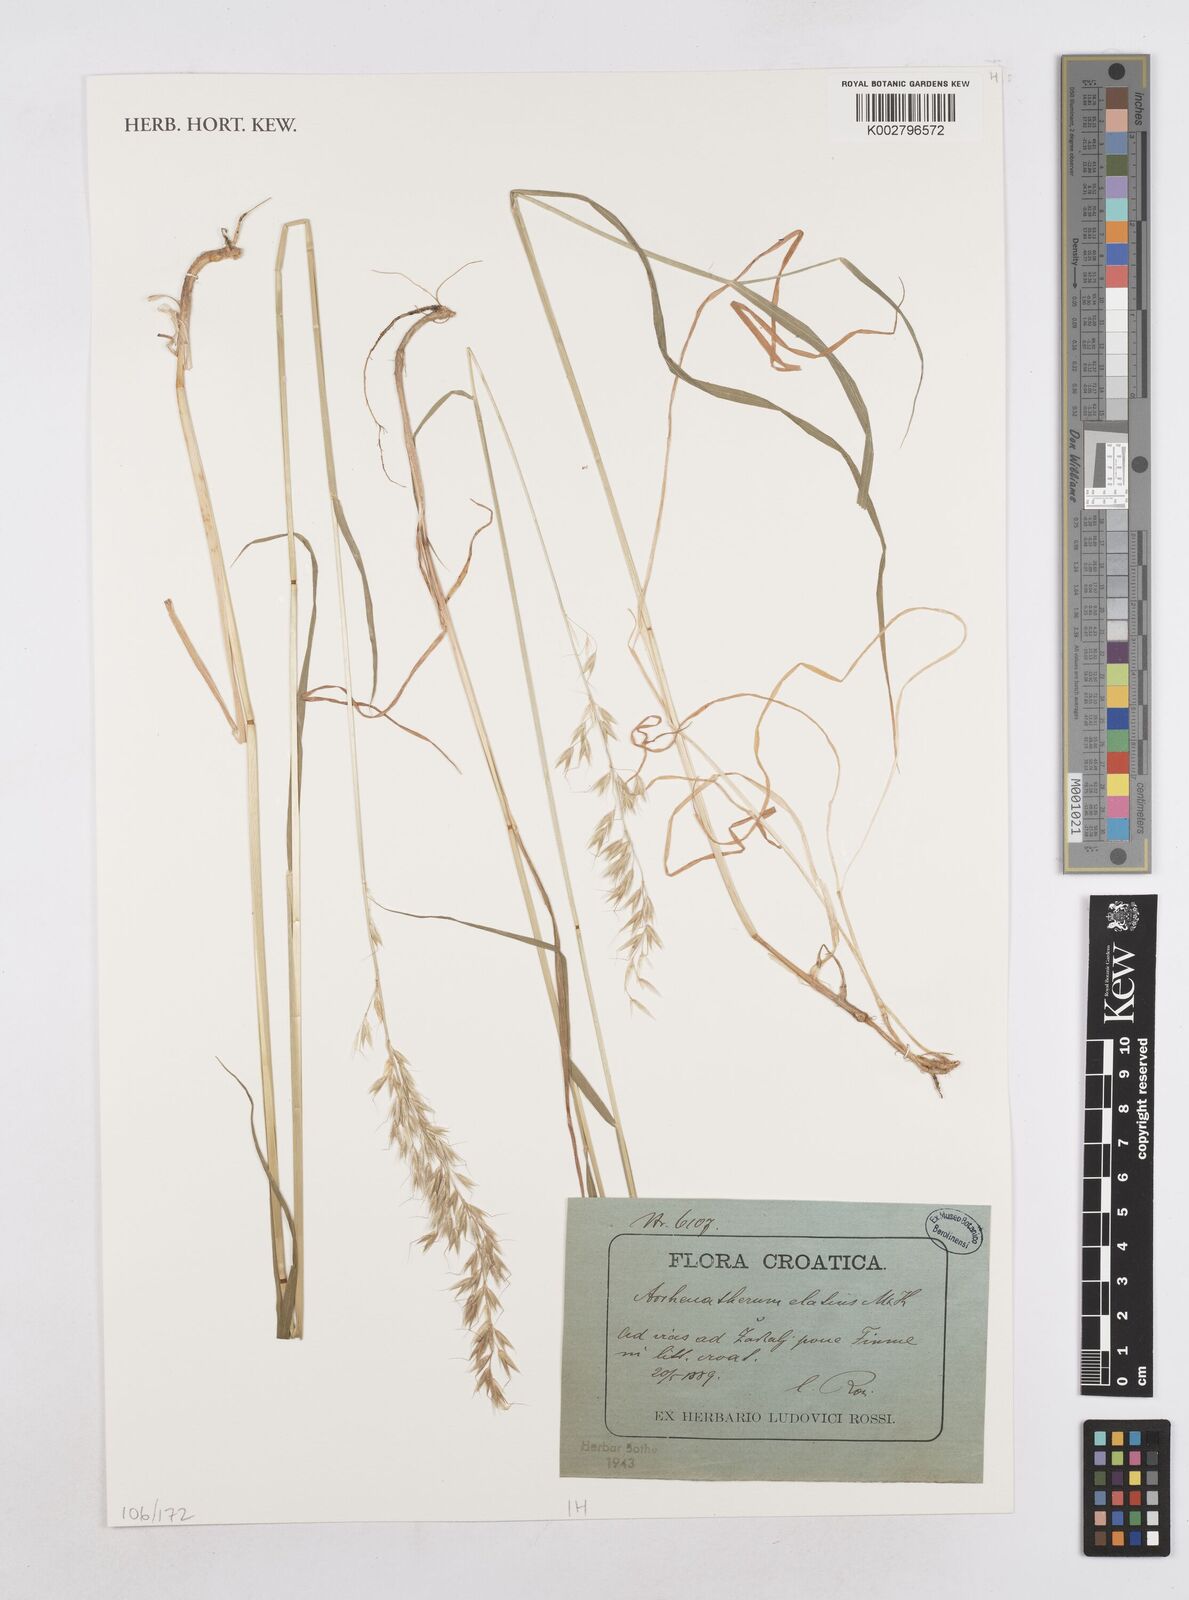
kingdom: Plantae
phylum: Tracheophyta
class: Liliopsida
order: Poales
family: Poaceae
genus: Arrhenatherum
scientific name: Arrhenatherum elatius
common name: Tall oatgrass
